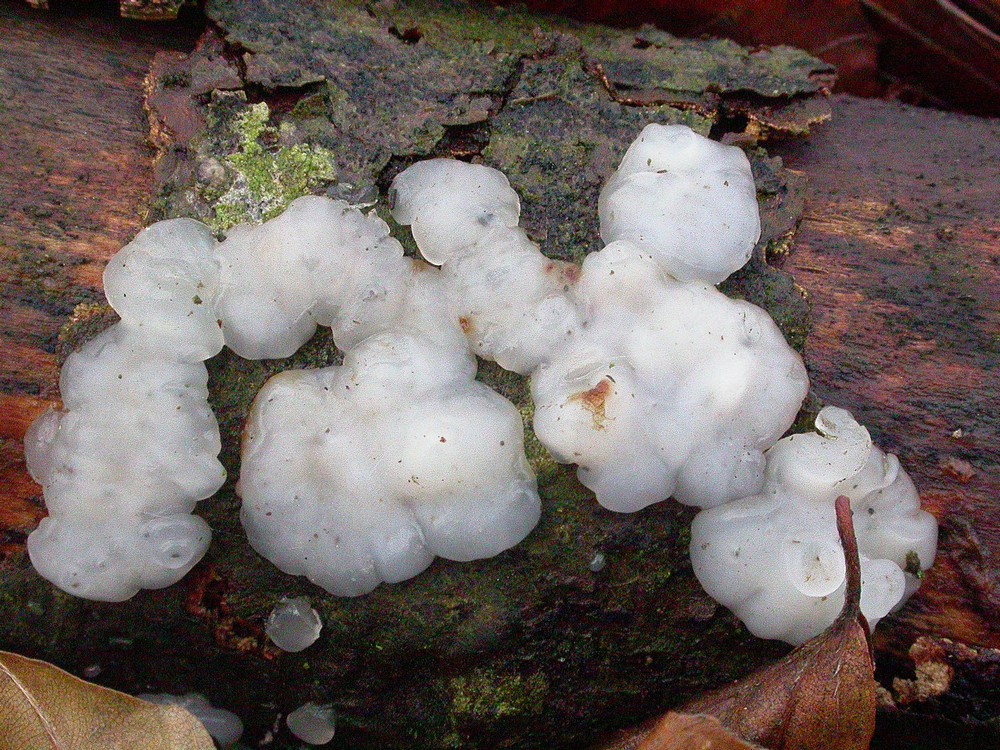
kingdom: Fungi
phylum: Basidiomycota
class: Agaricomycetes
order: Auriculariales
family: Auriculariaceae
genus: Exidia
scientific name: Exidia thuretiana
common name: hvidlig bævretop
